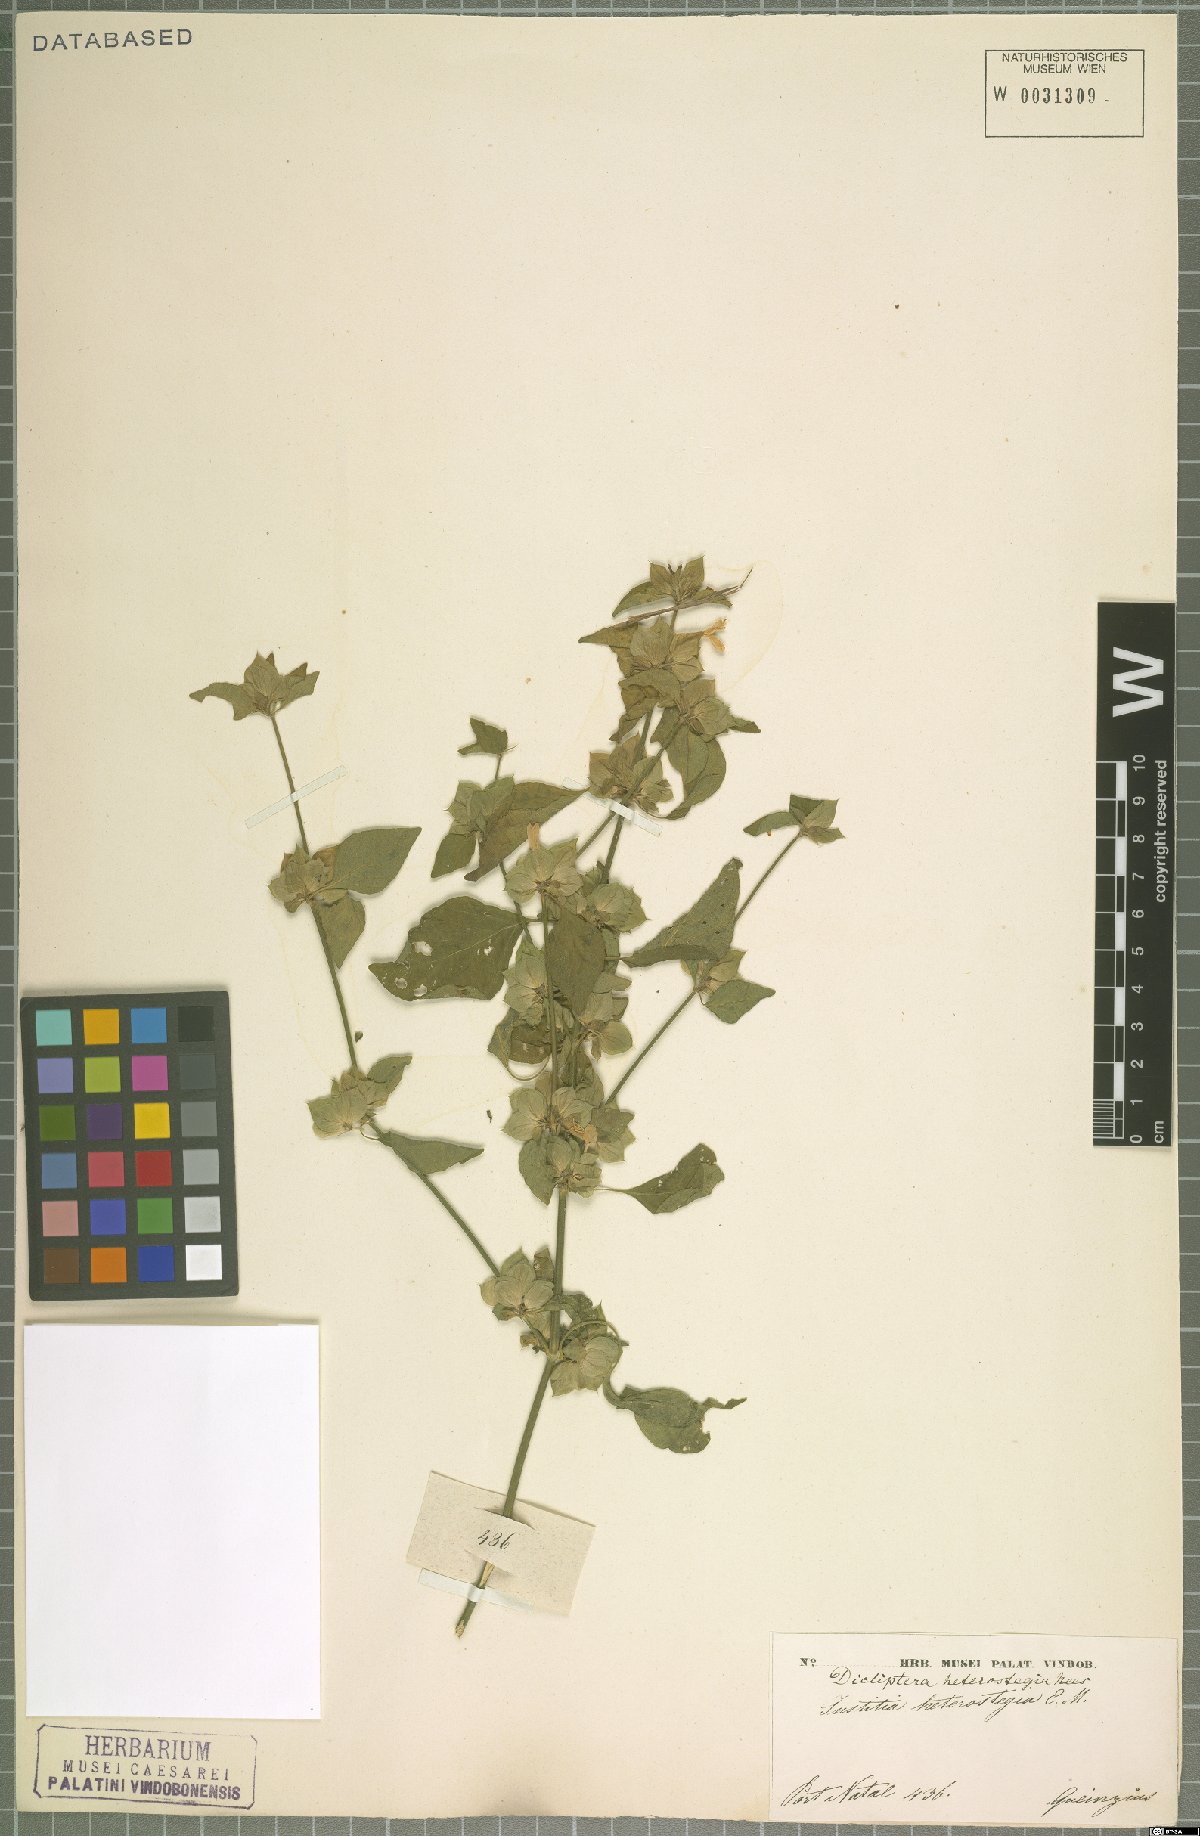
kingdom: Plantae
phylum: Tracheophyta
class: Magnoliopsida
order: Lamiales
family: Acanthaceae
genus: Dicliptera
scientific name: Dicliptera heterostegia
